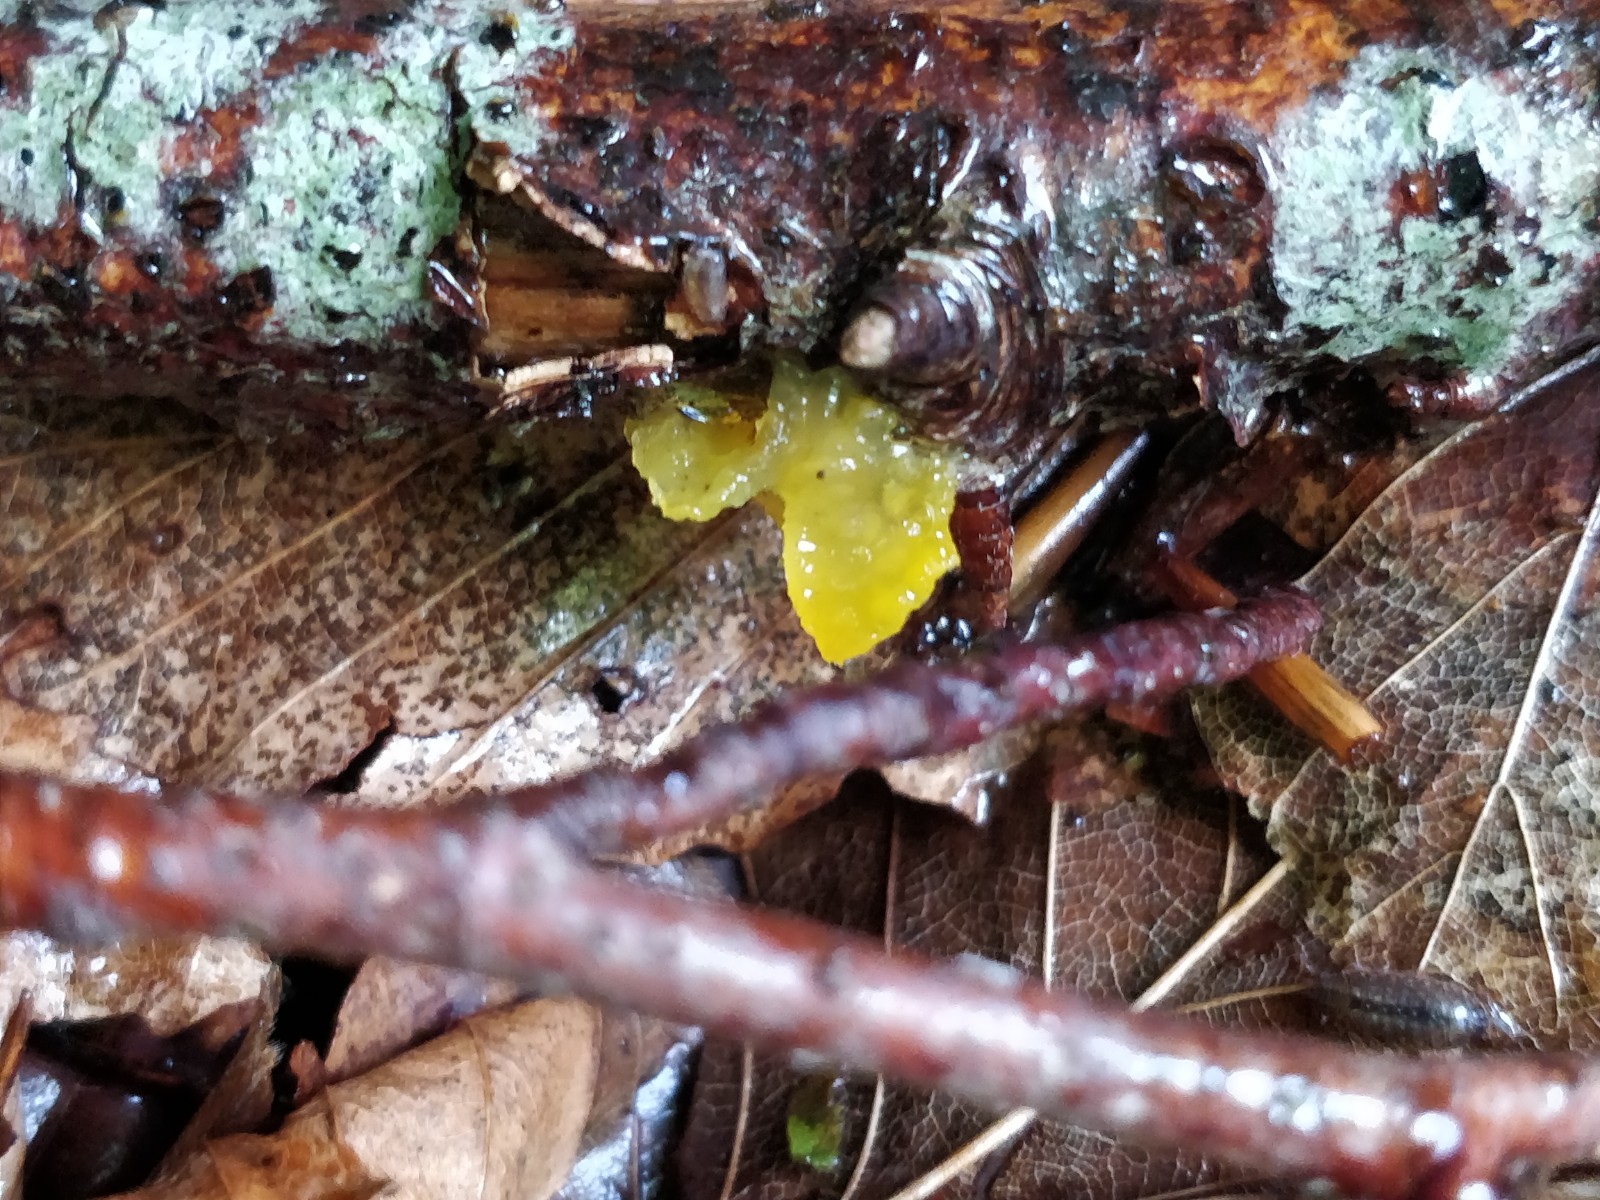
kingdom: Fungi
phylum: Basidiomycota
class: Tremellomycetes
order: Tremellales
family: Tremellaceae
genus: Tremella
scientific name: Tremella mesenterica
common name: gul bævresvamp
